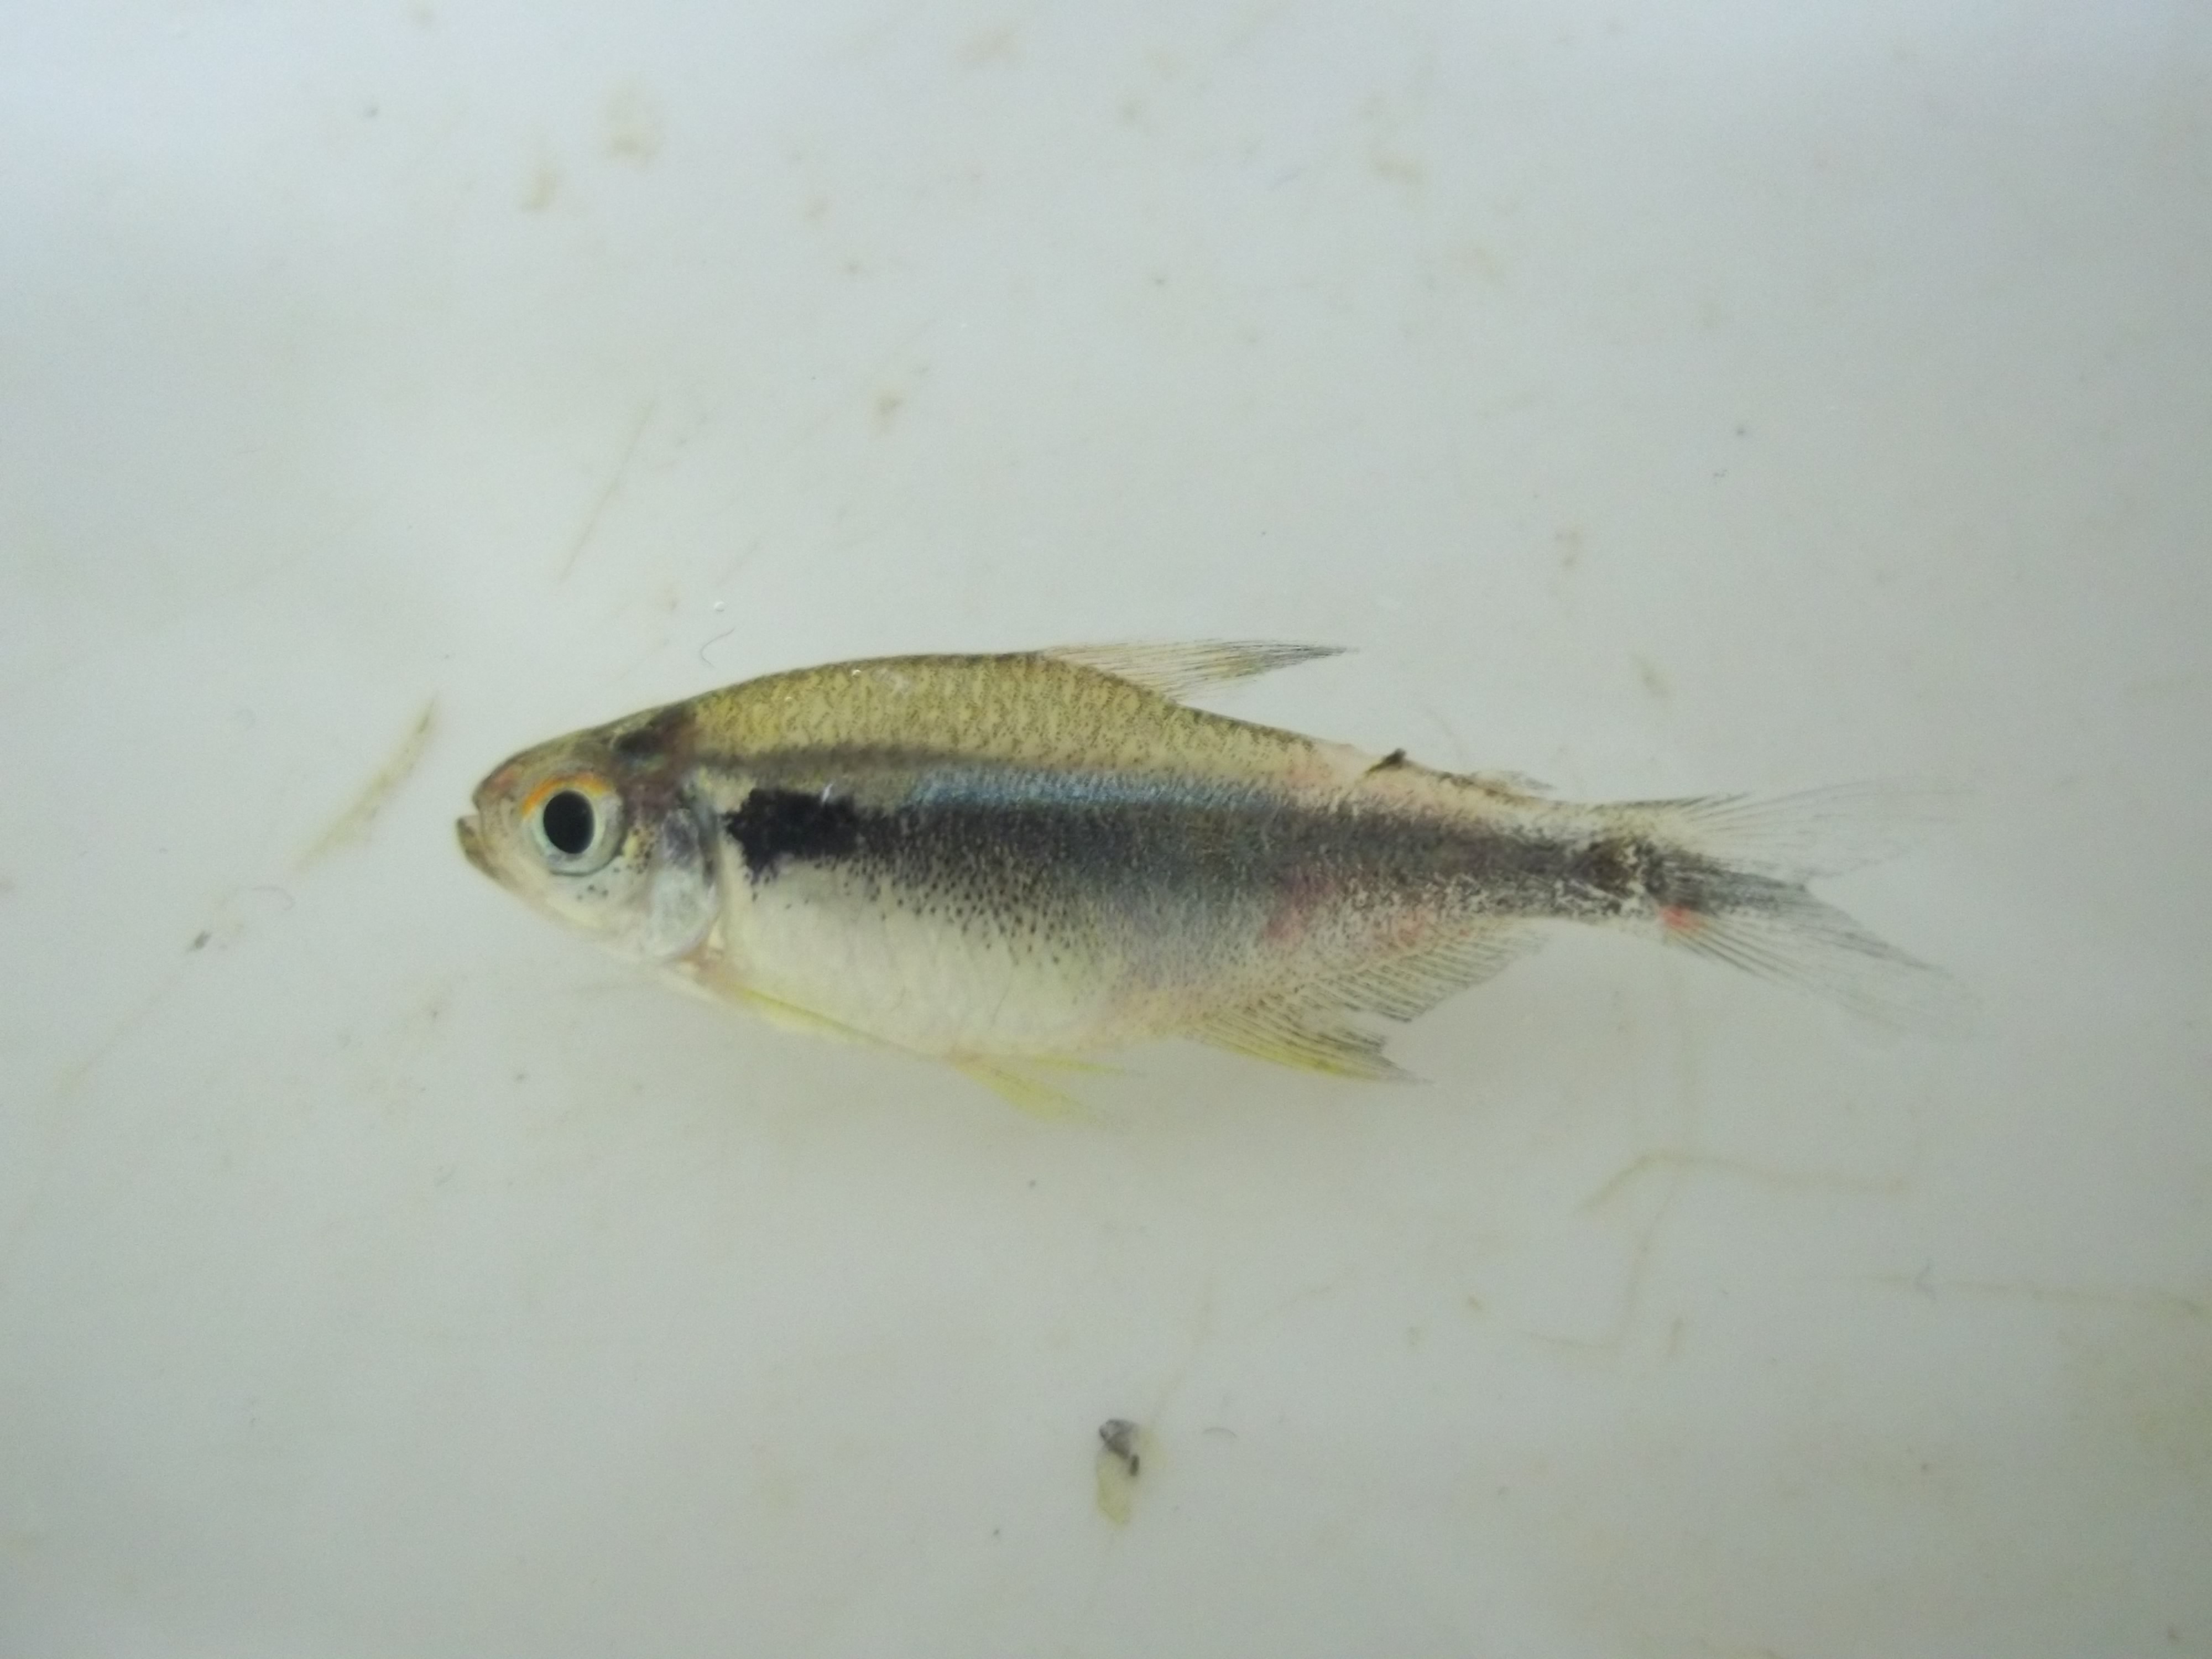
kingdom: Animalia
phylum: Chordata
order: Characiformes
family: Characidae
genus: Hyphessobrycon
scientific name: Hyphessobrycon herbertaxelrodi
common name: Black neon tetra
